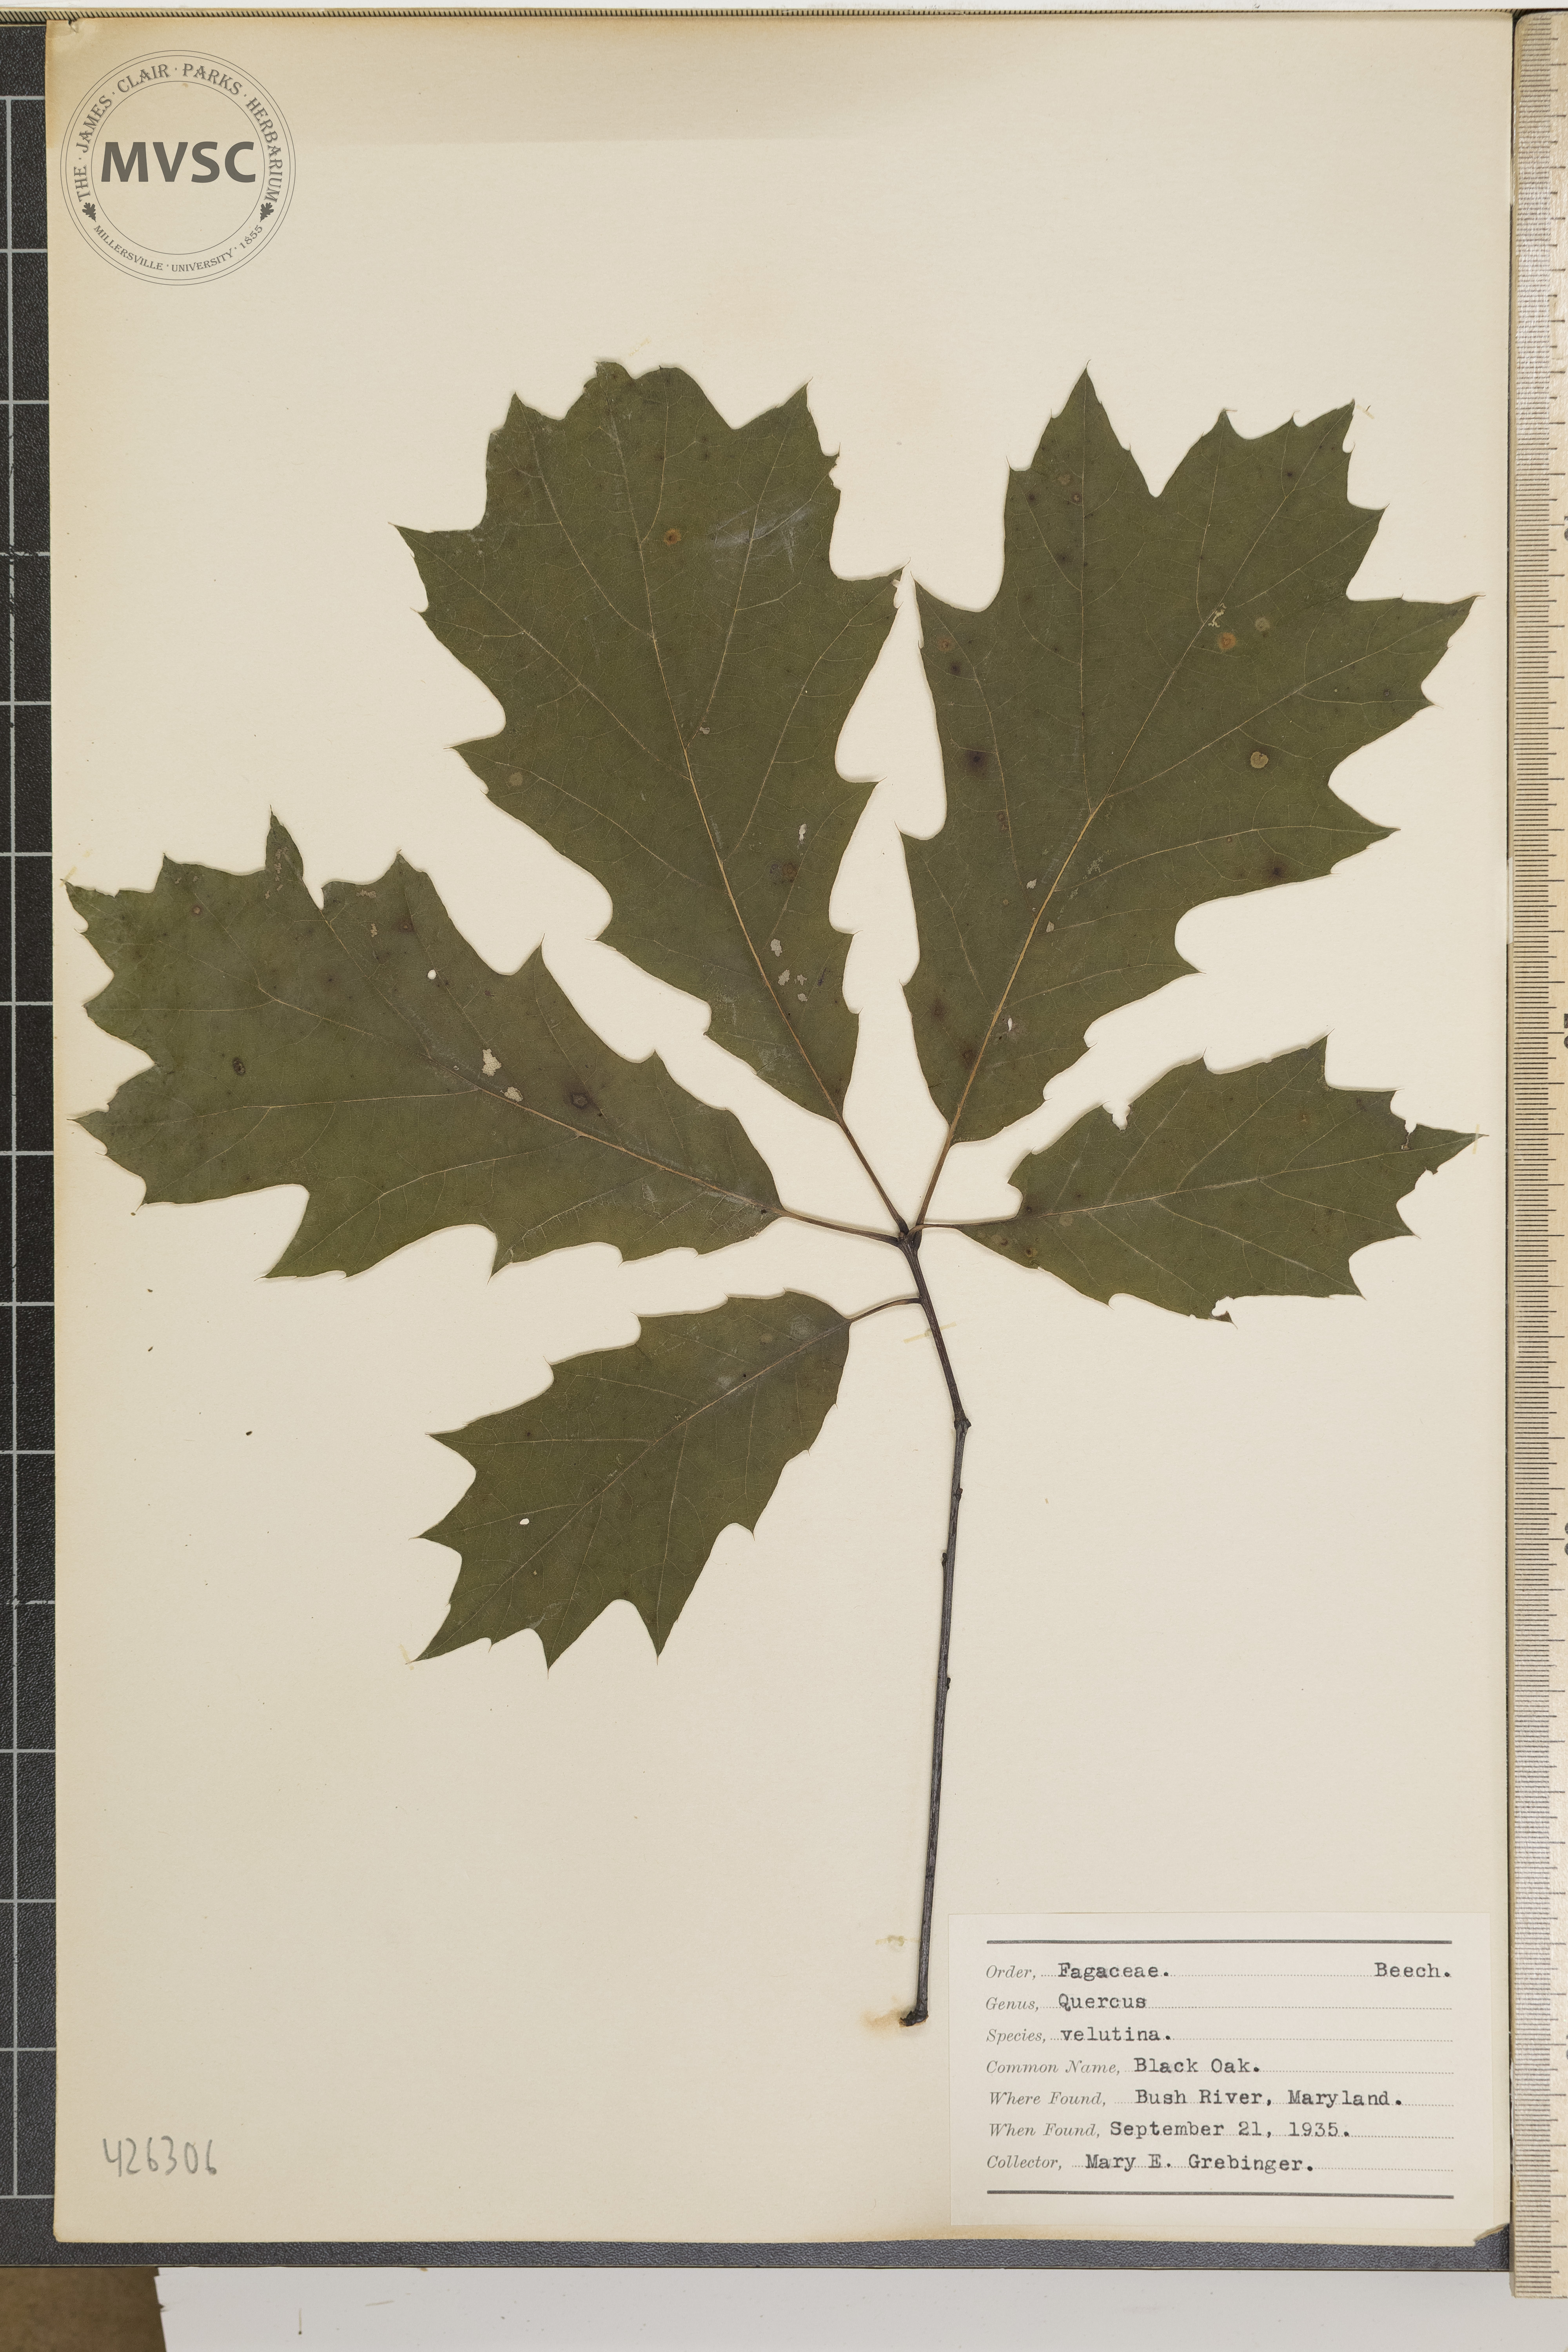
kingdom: Plantae
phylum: Tracheophyta
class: Magnoliopsida
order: Fagales
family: Fagaceae
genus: Quercus
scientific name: Quercus velutina
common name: Black oak
